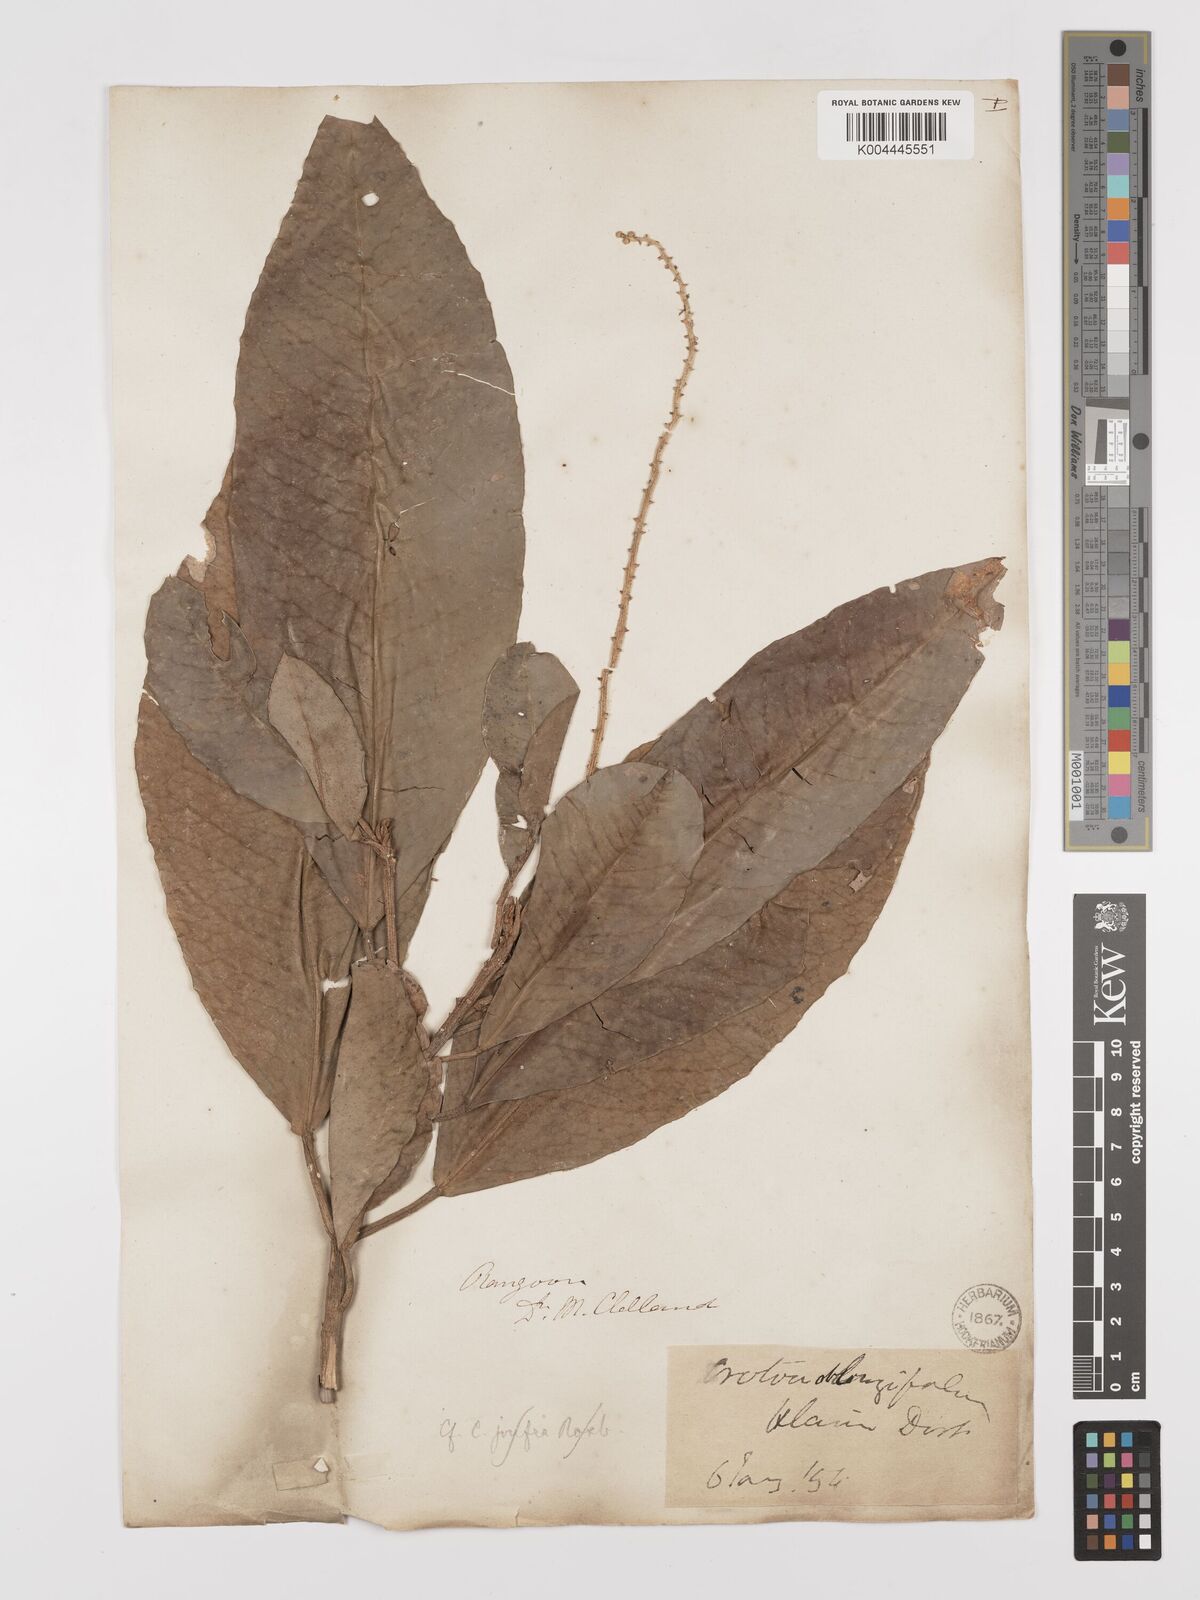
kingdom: Plantae
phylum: Tracheophyta
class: Magnoliopsida
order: Malpighiales
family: Euphorbiaceae
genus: Croton
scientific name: Croton robustus
